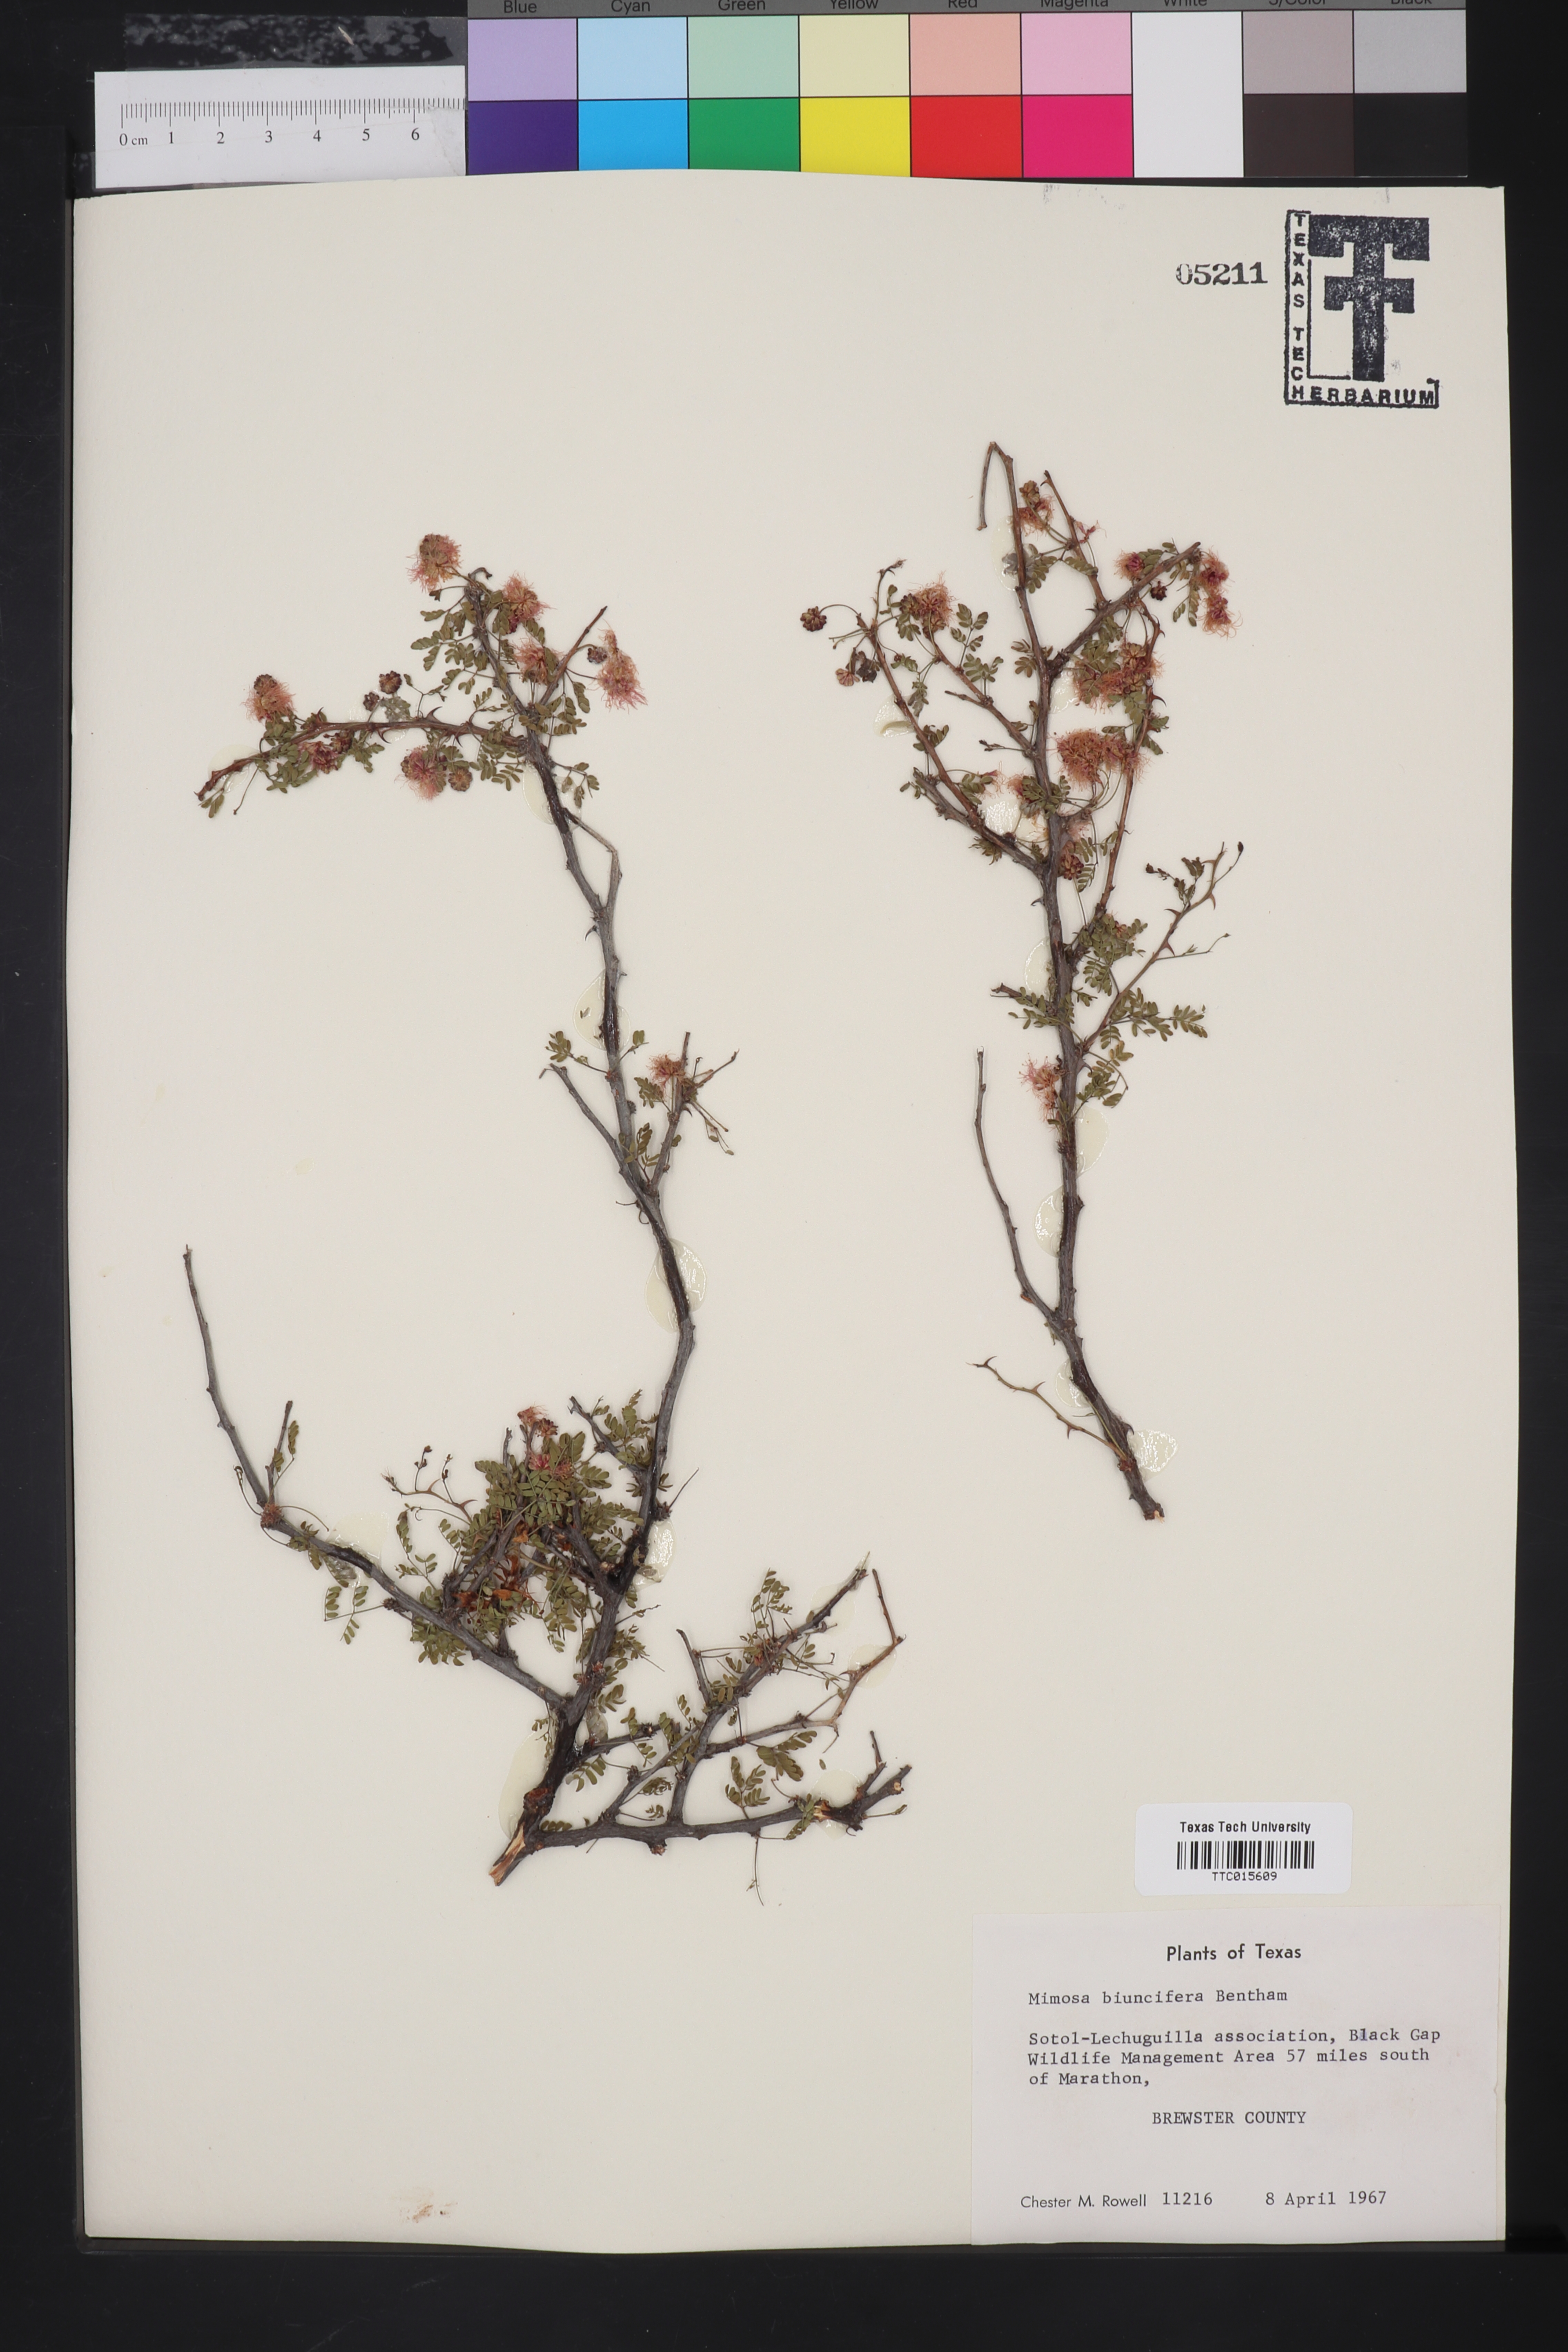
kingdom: Plantae
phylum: Tracheophyta
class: Magnoliopsida
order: Fabales
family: Fabaceae
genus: Mimosa
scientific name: Mimosa biuncifera
